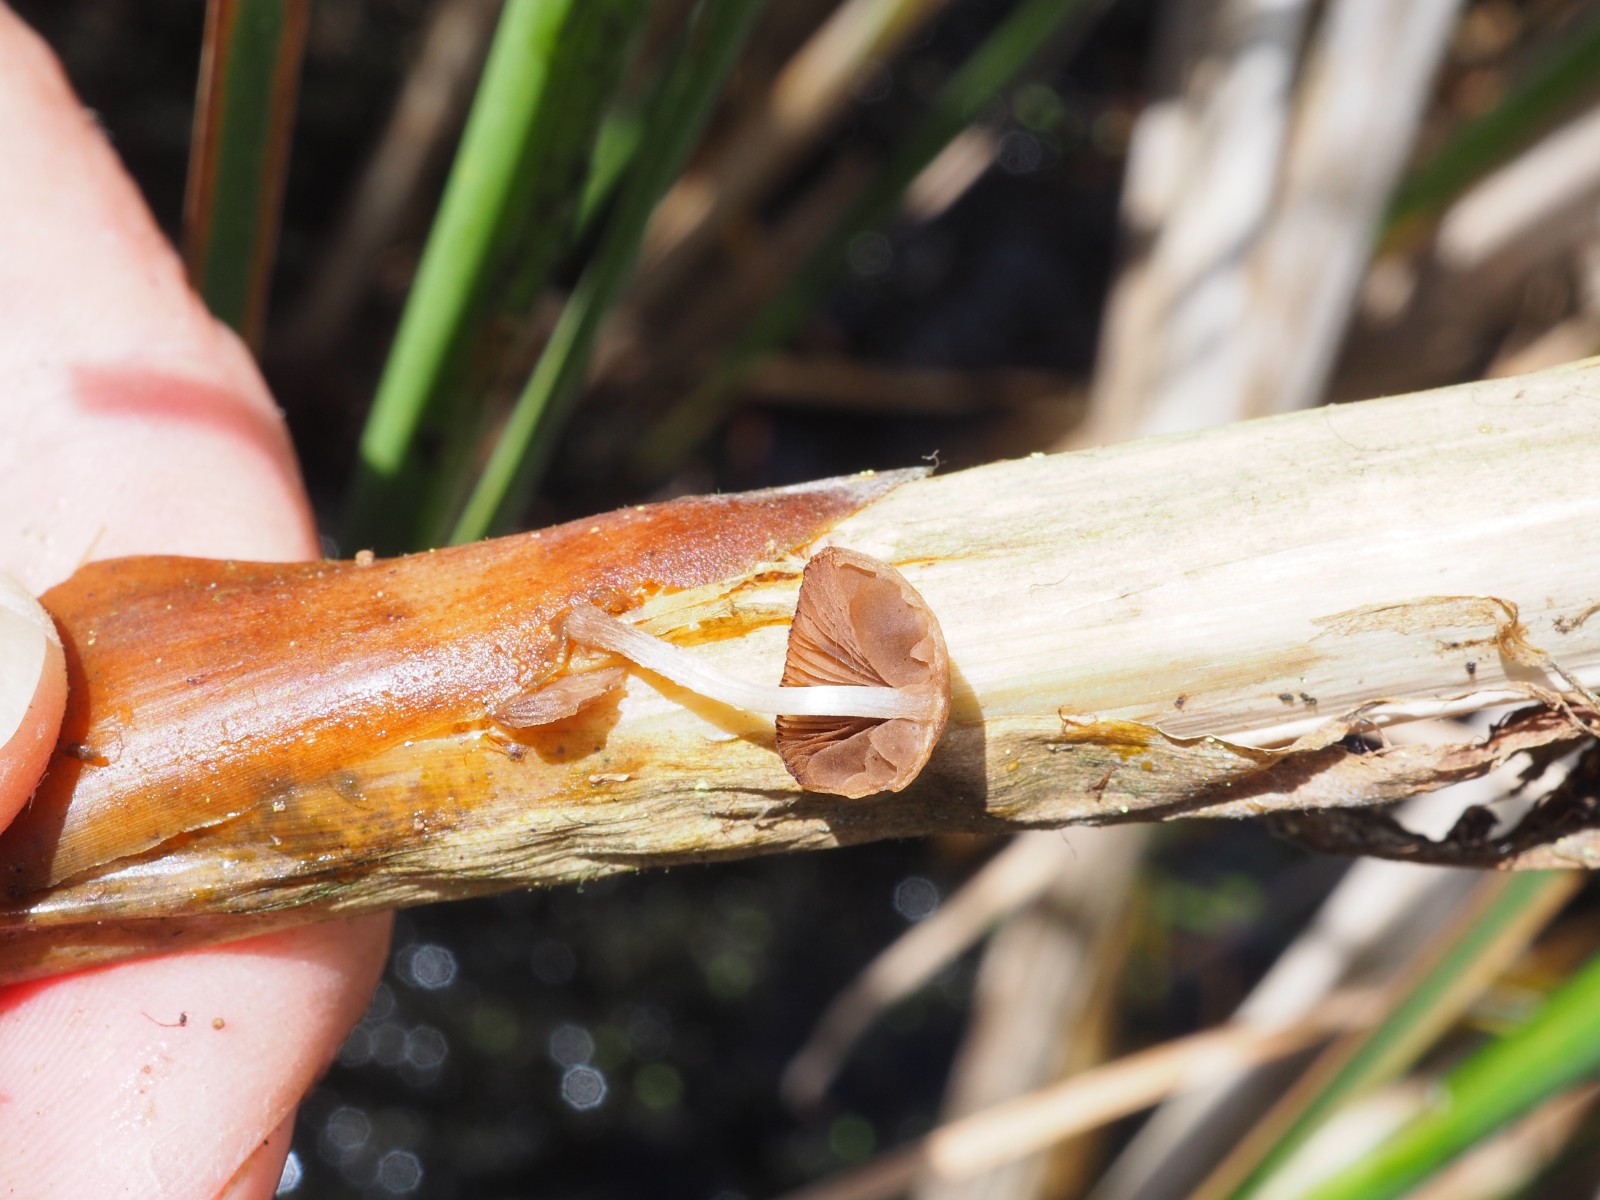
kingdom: Fungi
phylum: Basidiomycota
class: Agaricomycetes
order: Agaricales
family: Psathyrellaceae
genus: Candolleomyces
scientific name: Candolleomyces typhae
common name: dunhammer-mørkhat
